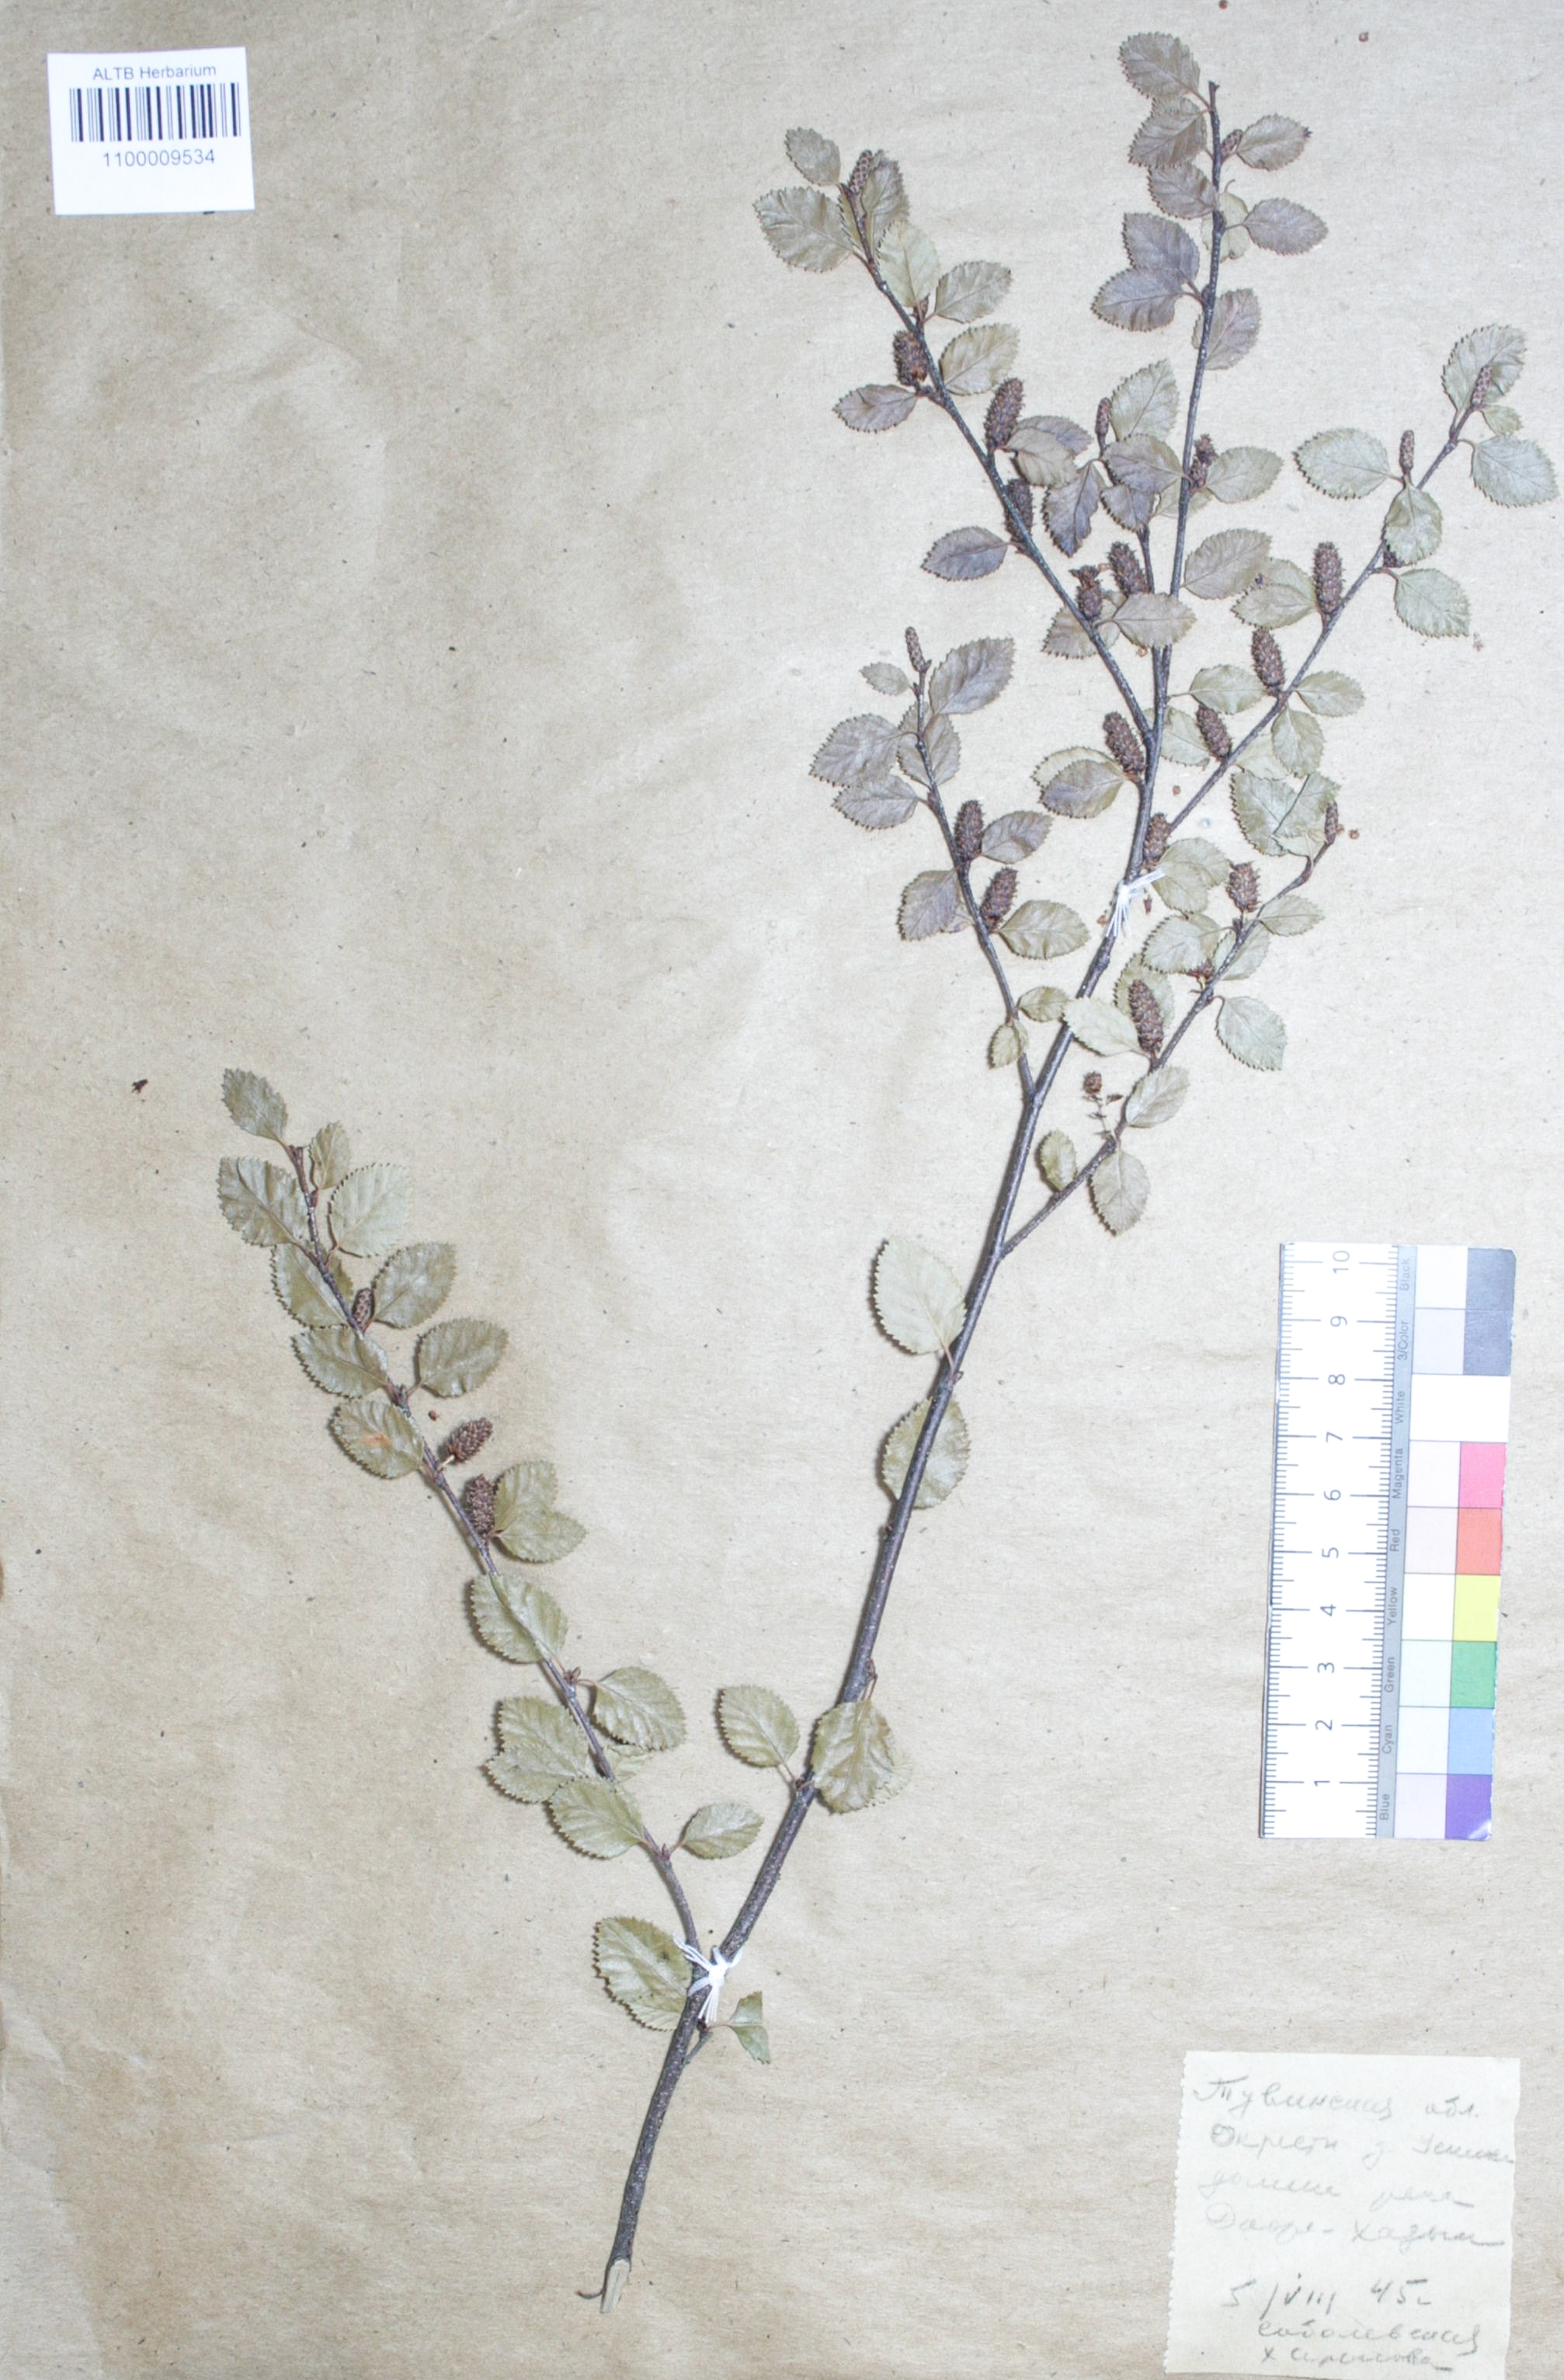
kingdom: Plantae
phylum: Tracheophyta
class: Magnoliopsida
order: Fagales
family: Betulaceae
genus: Betula
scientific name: Betula glandulosa
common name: Dwarf birch
